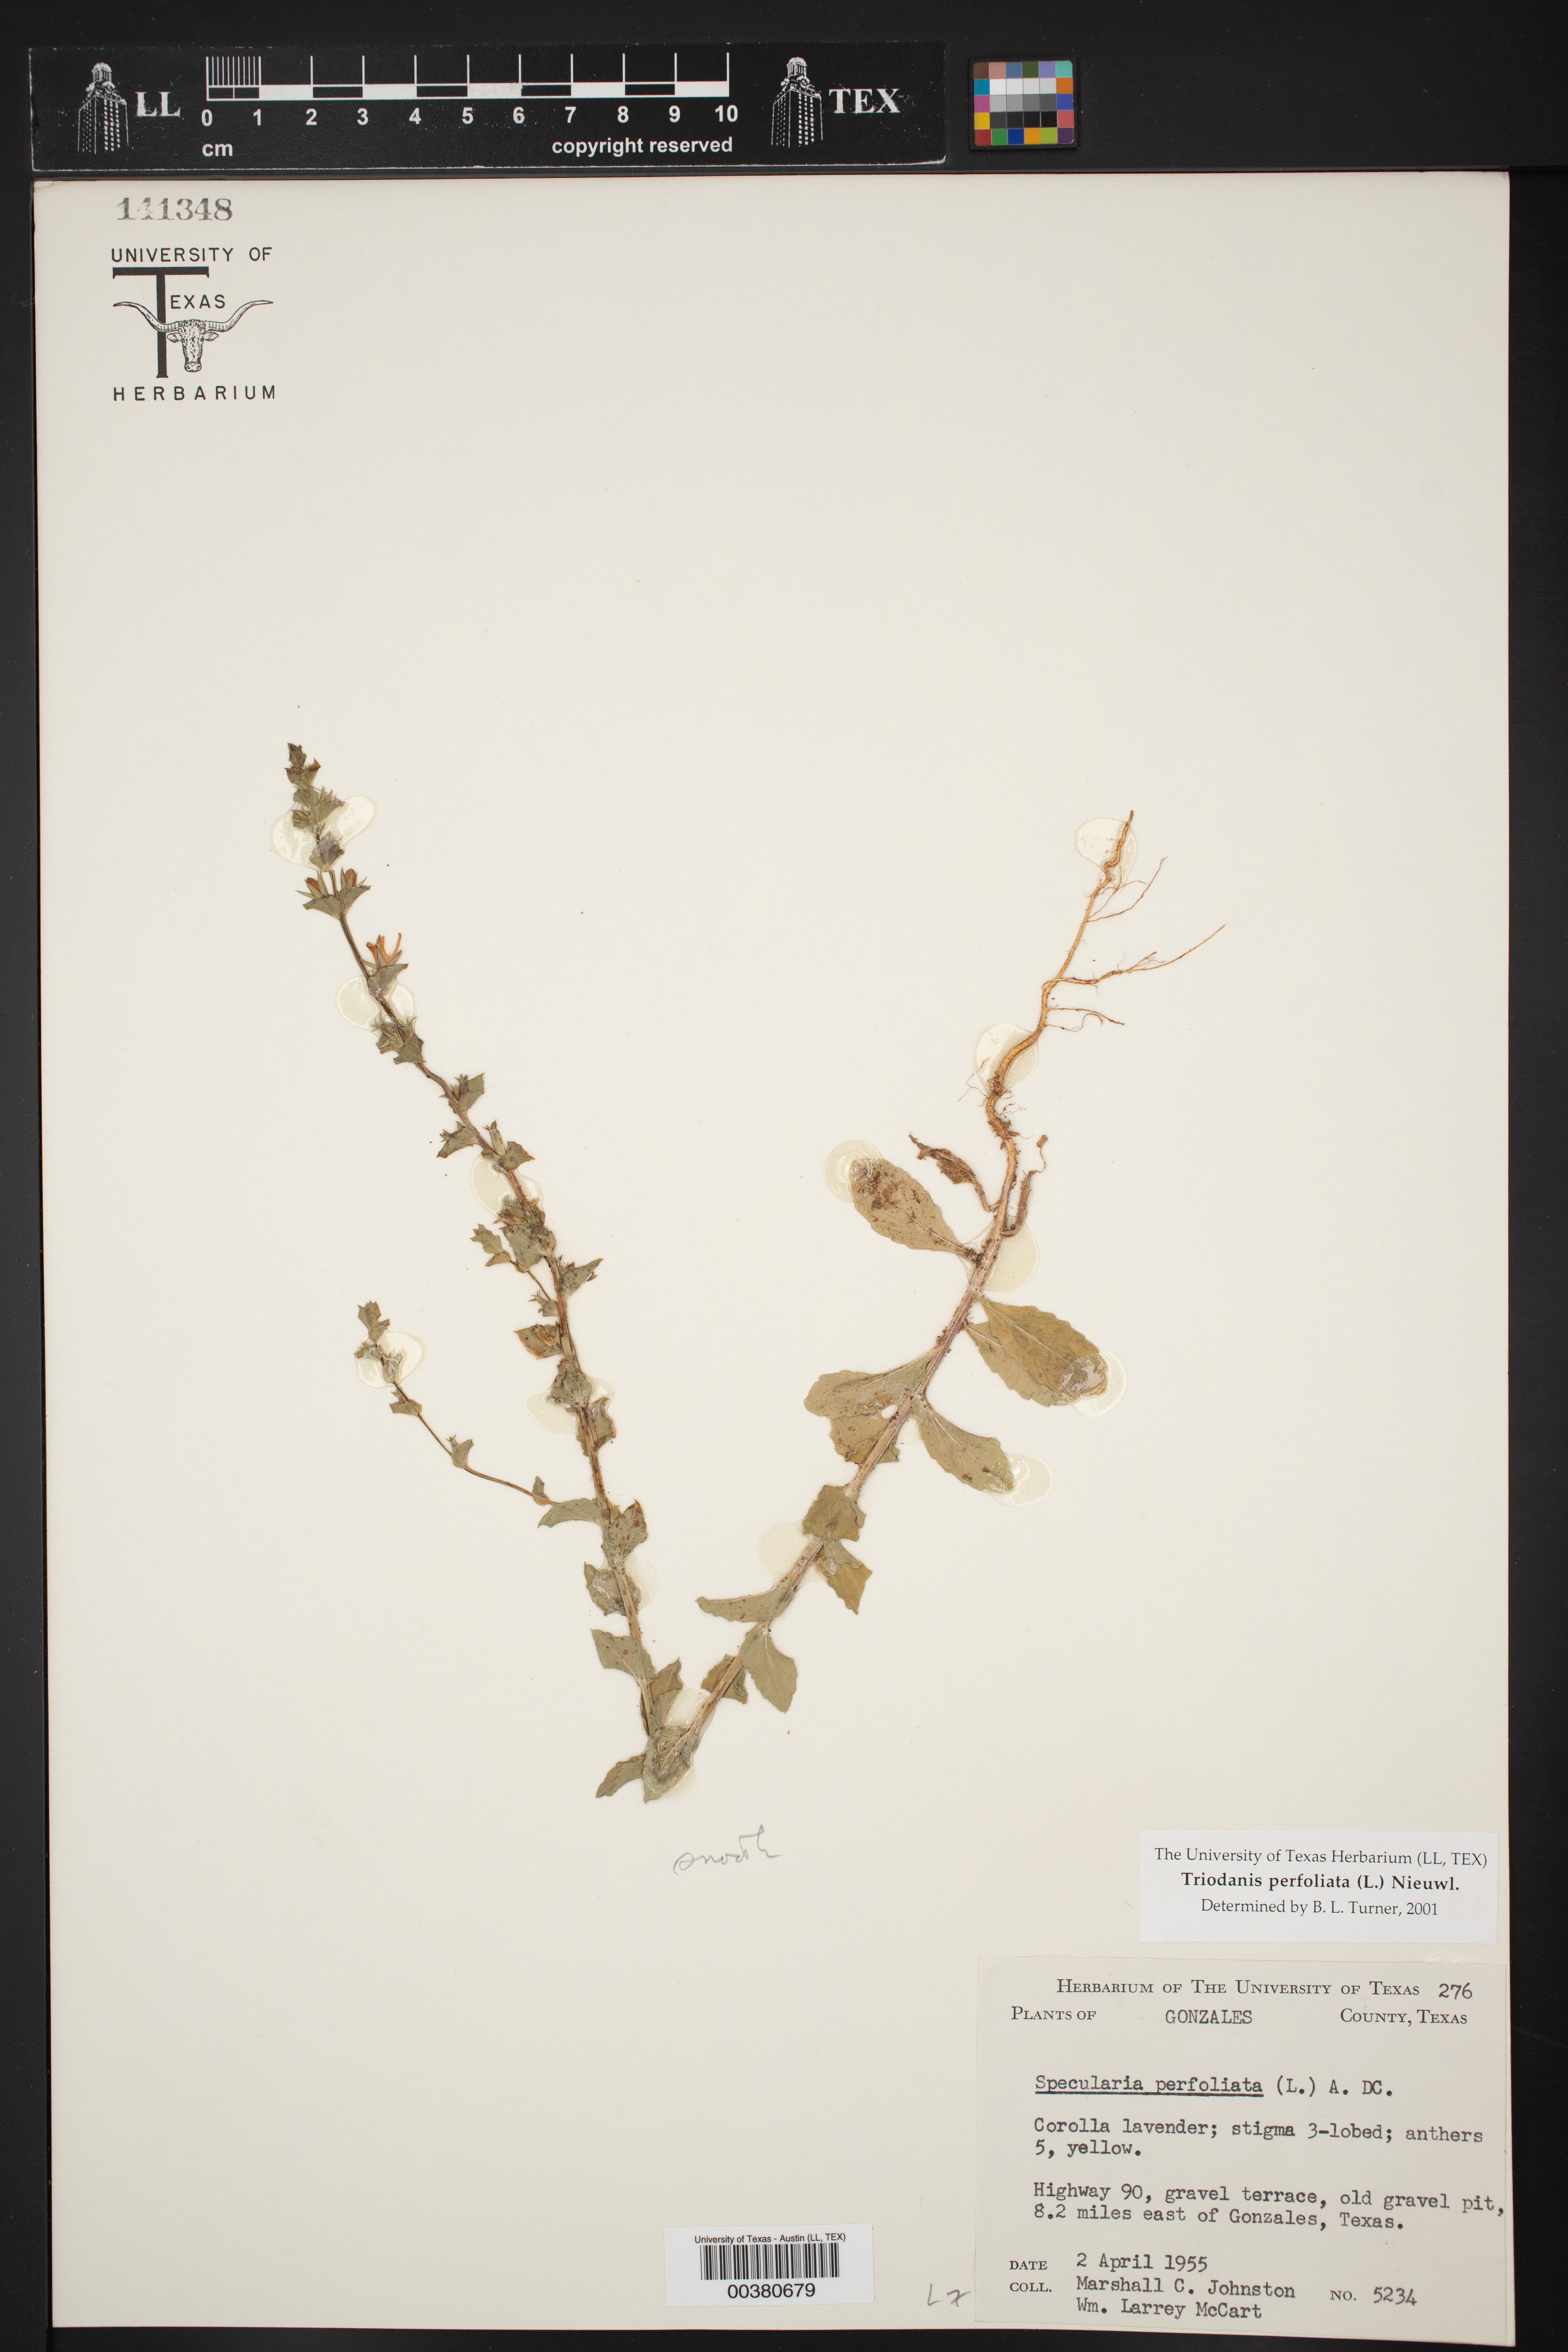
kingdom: Plantae
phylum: Tracheophyta
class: Magnoliopsida
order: Asterales
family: Campanulaceae
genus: Triodanis
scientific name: Triodanis perfoliata
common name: Clasping venus' looking-glass
